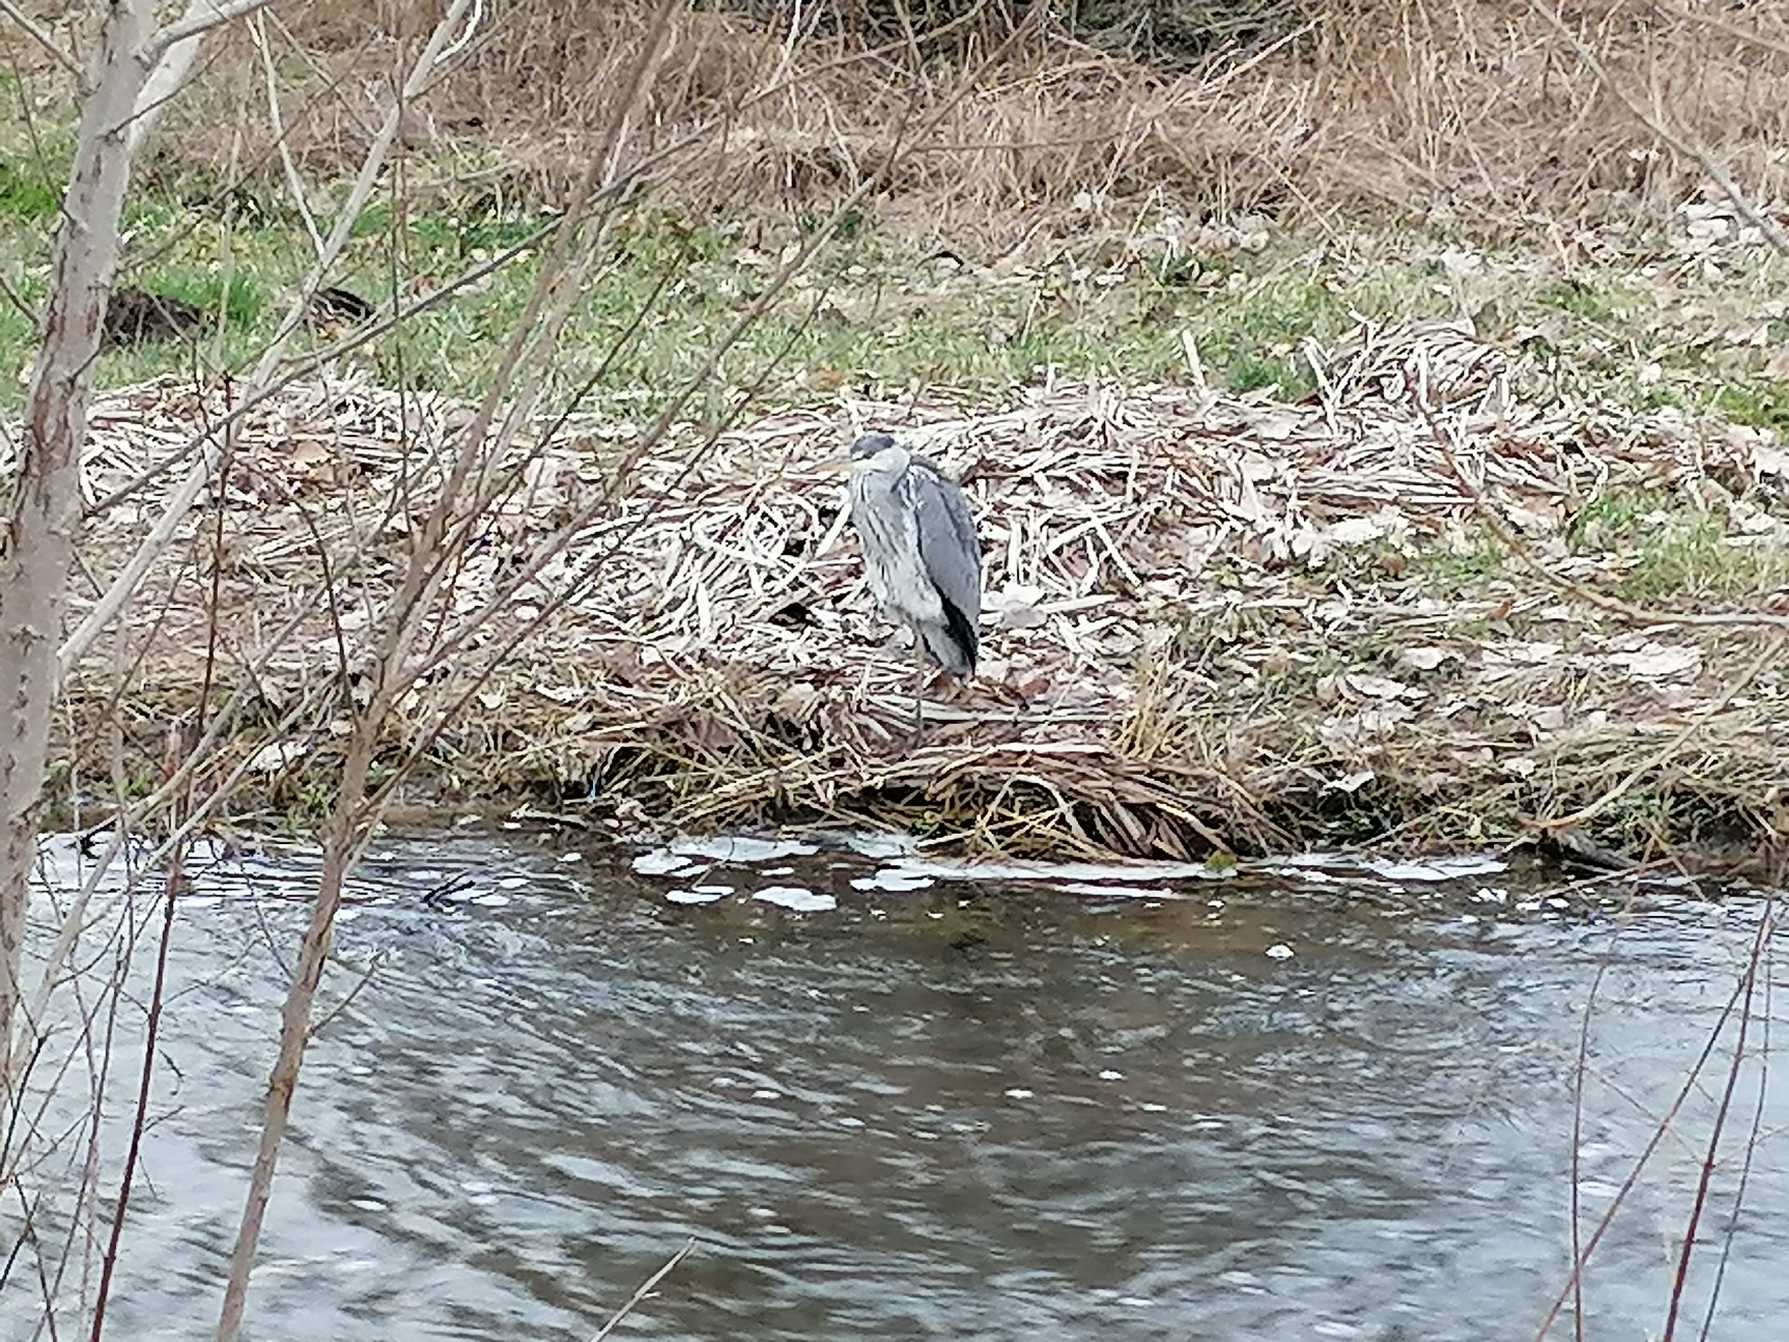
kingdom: Animalia
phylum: Chordata
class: Aves
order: Pelecaniformes
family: Ardeidae
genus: Ardea
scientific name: Ardea cinerea
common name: Fiskehejre
